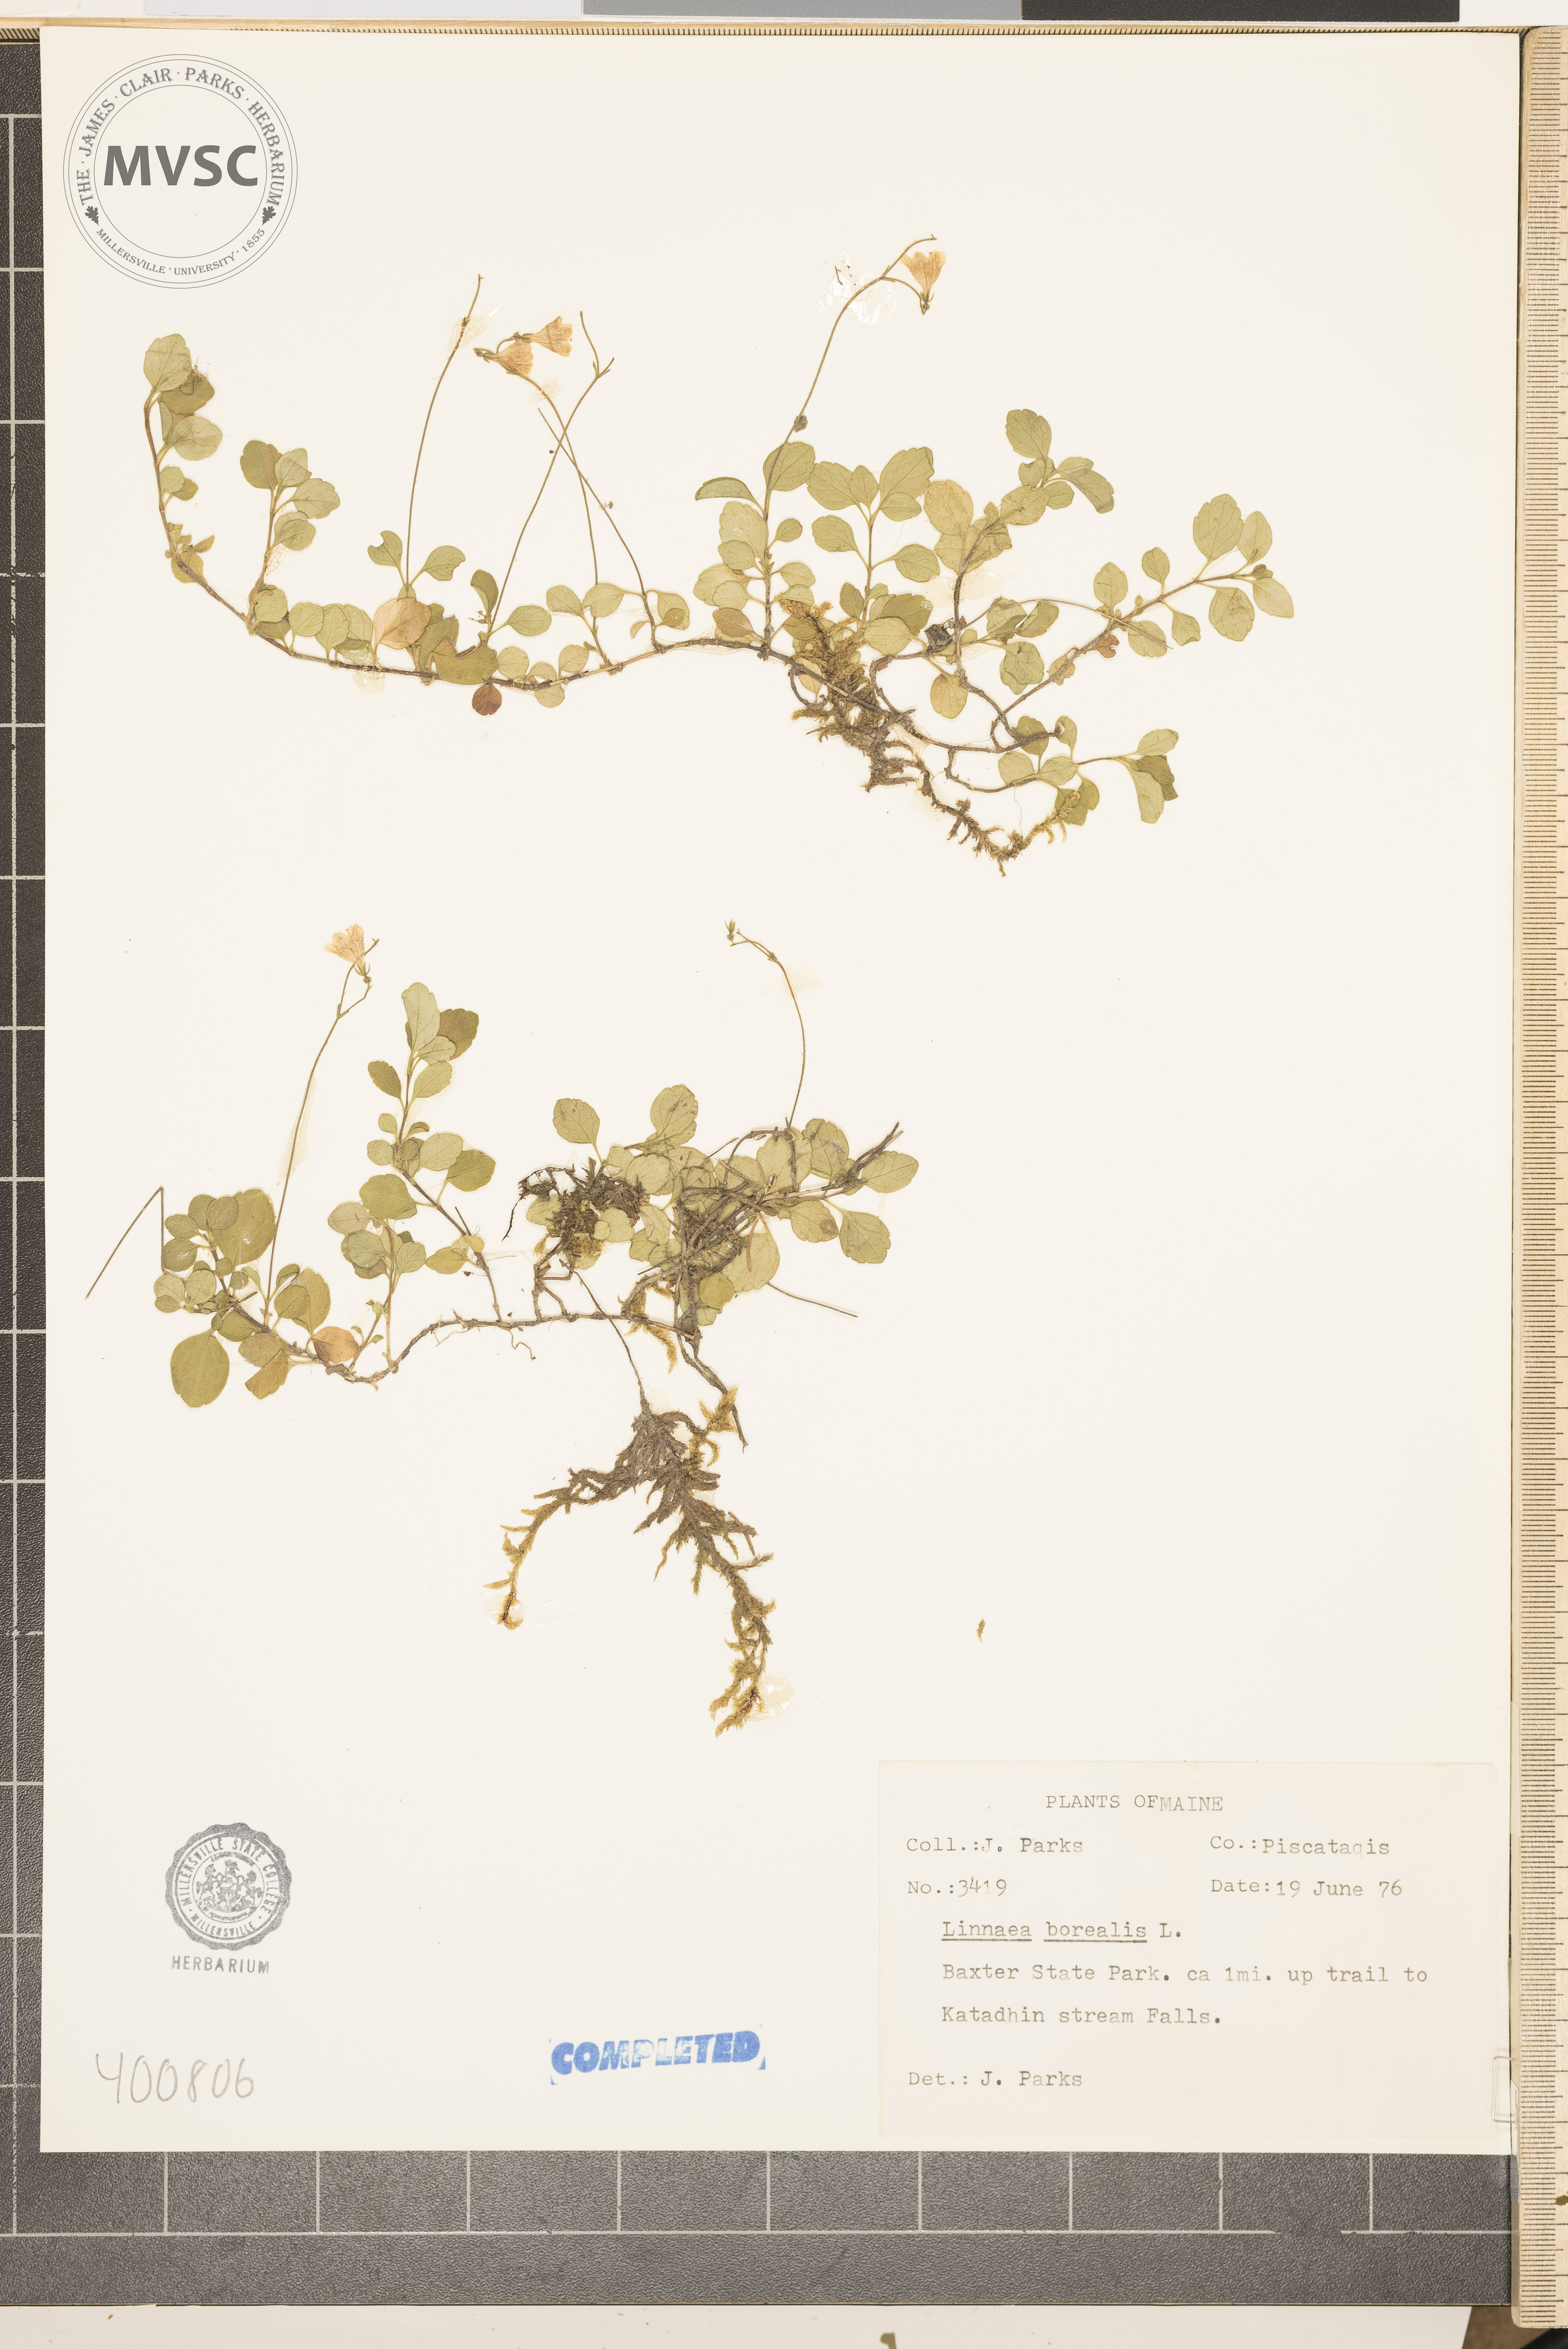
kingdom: Plantae
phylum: Tracheophyta
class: Magnoliopsida
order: Dipsacales
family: Caprifoliaceae
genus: Linnaea
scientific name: Linnaea borealis
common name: Twinflower
